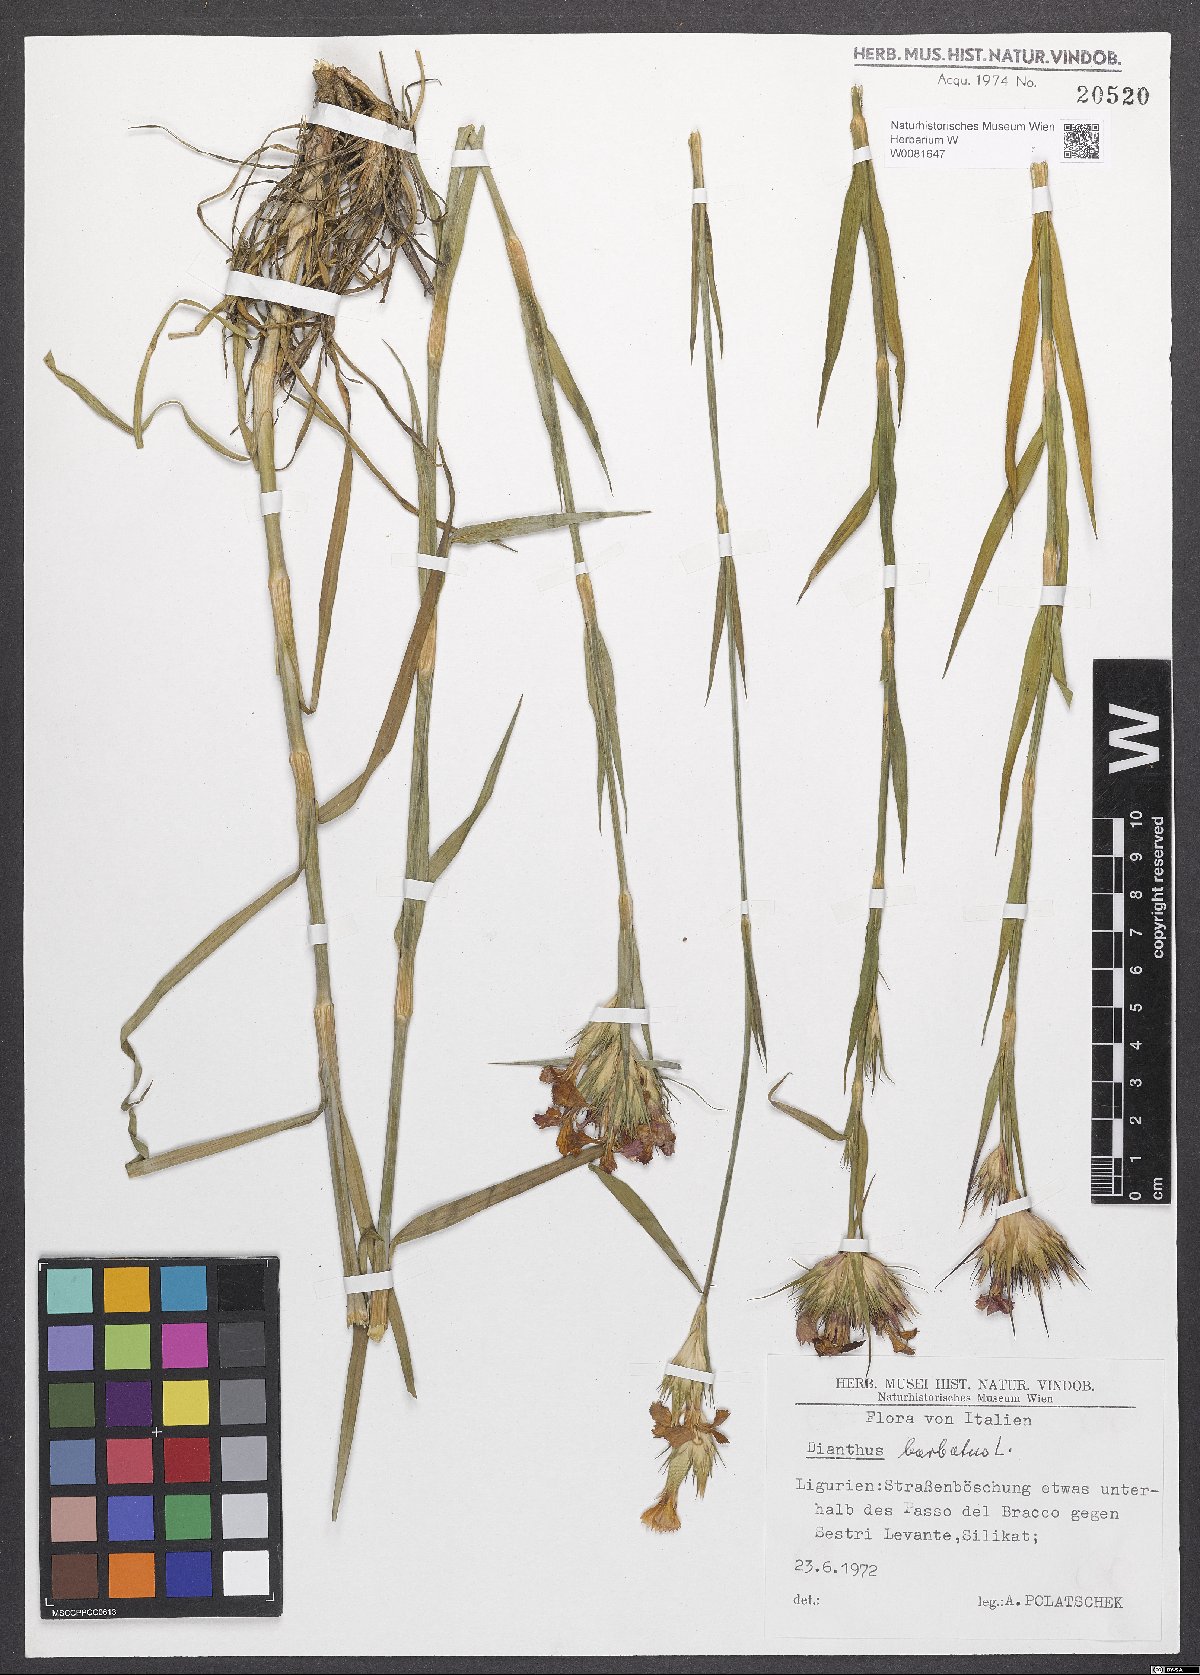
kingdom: Plantae
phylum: Tracheophyta
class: Magnoliopsida
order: Caryophyllales
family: Caryophyllaceae
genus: Dianthus
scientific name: Dianthus barbatus
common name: Sweet-william
